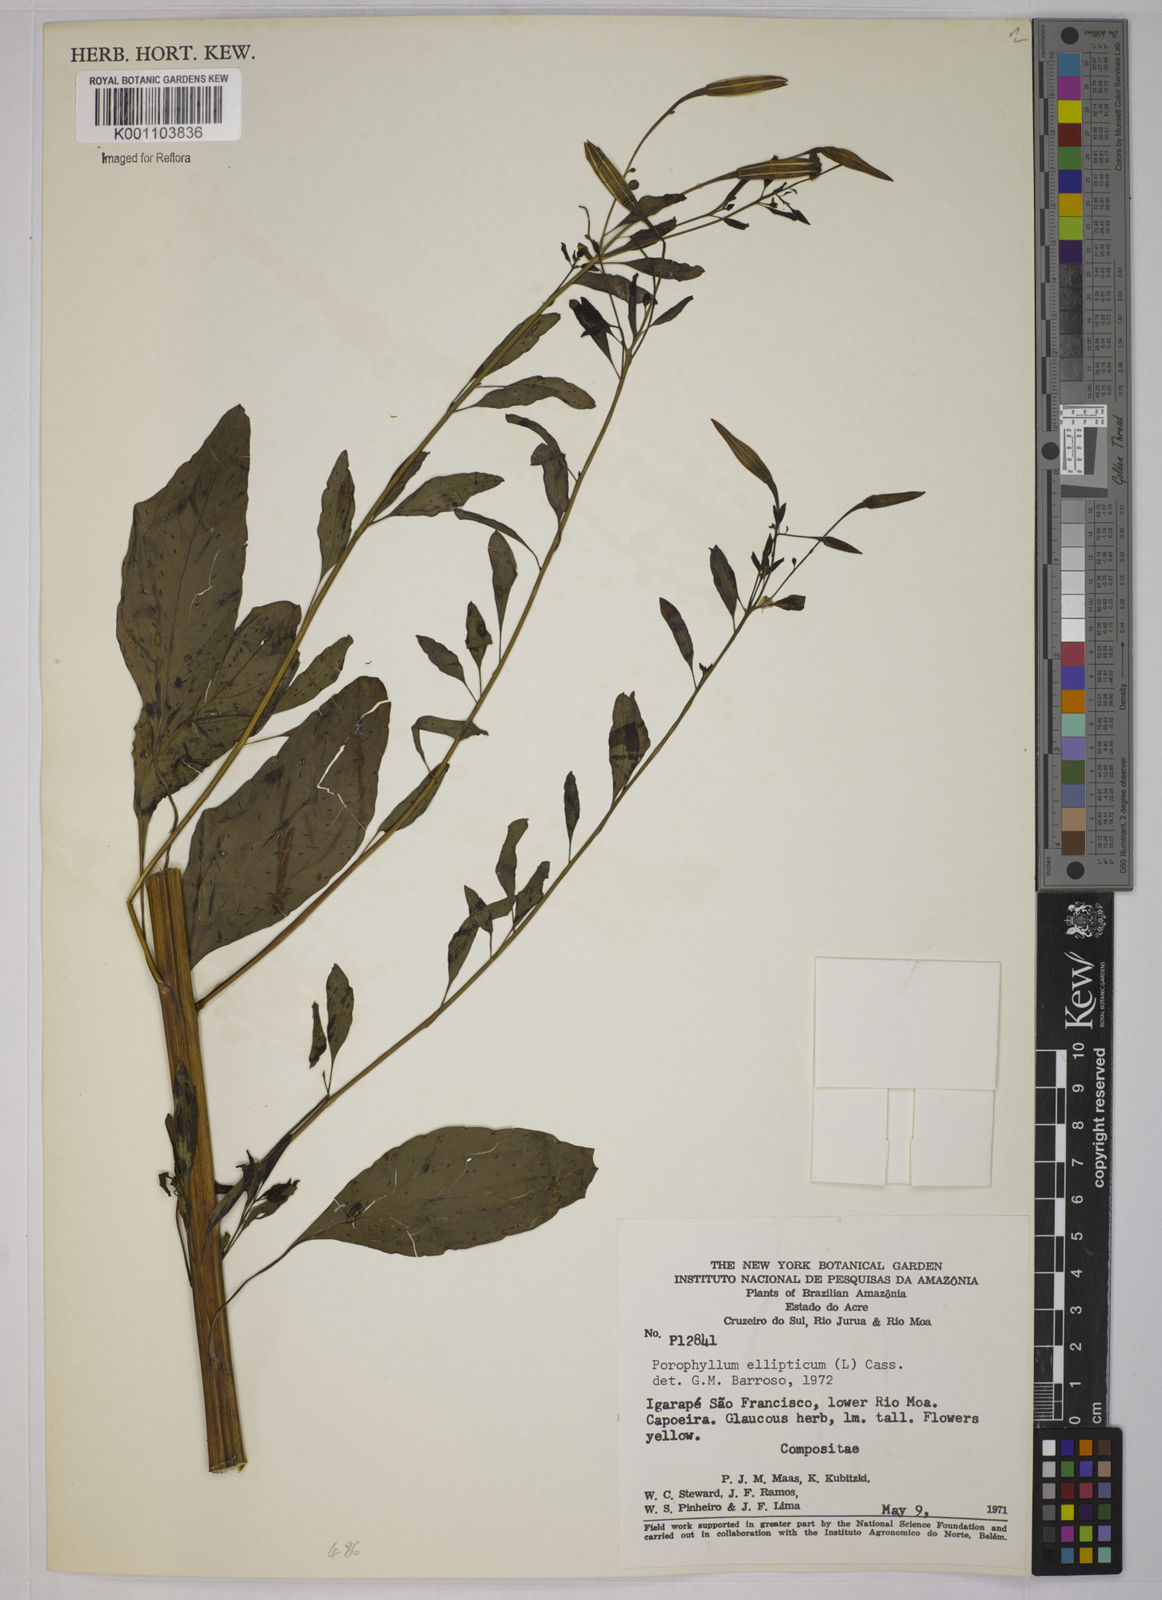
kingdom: Plantae
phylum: Tracheophyta
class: Magnoliopsida
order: Asterales
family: Asteraceae
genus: Porophyllum
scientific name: Porophyllum ruderale
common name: Yerba porosa
